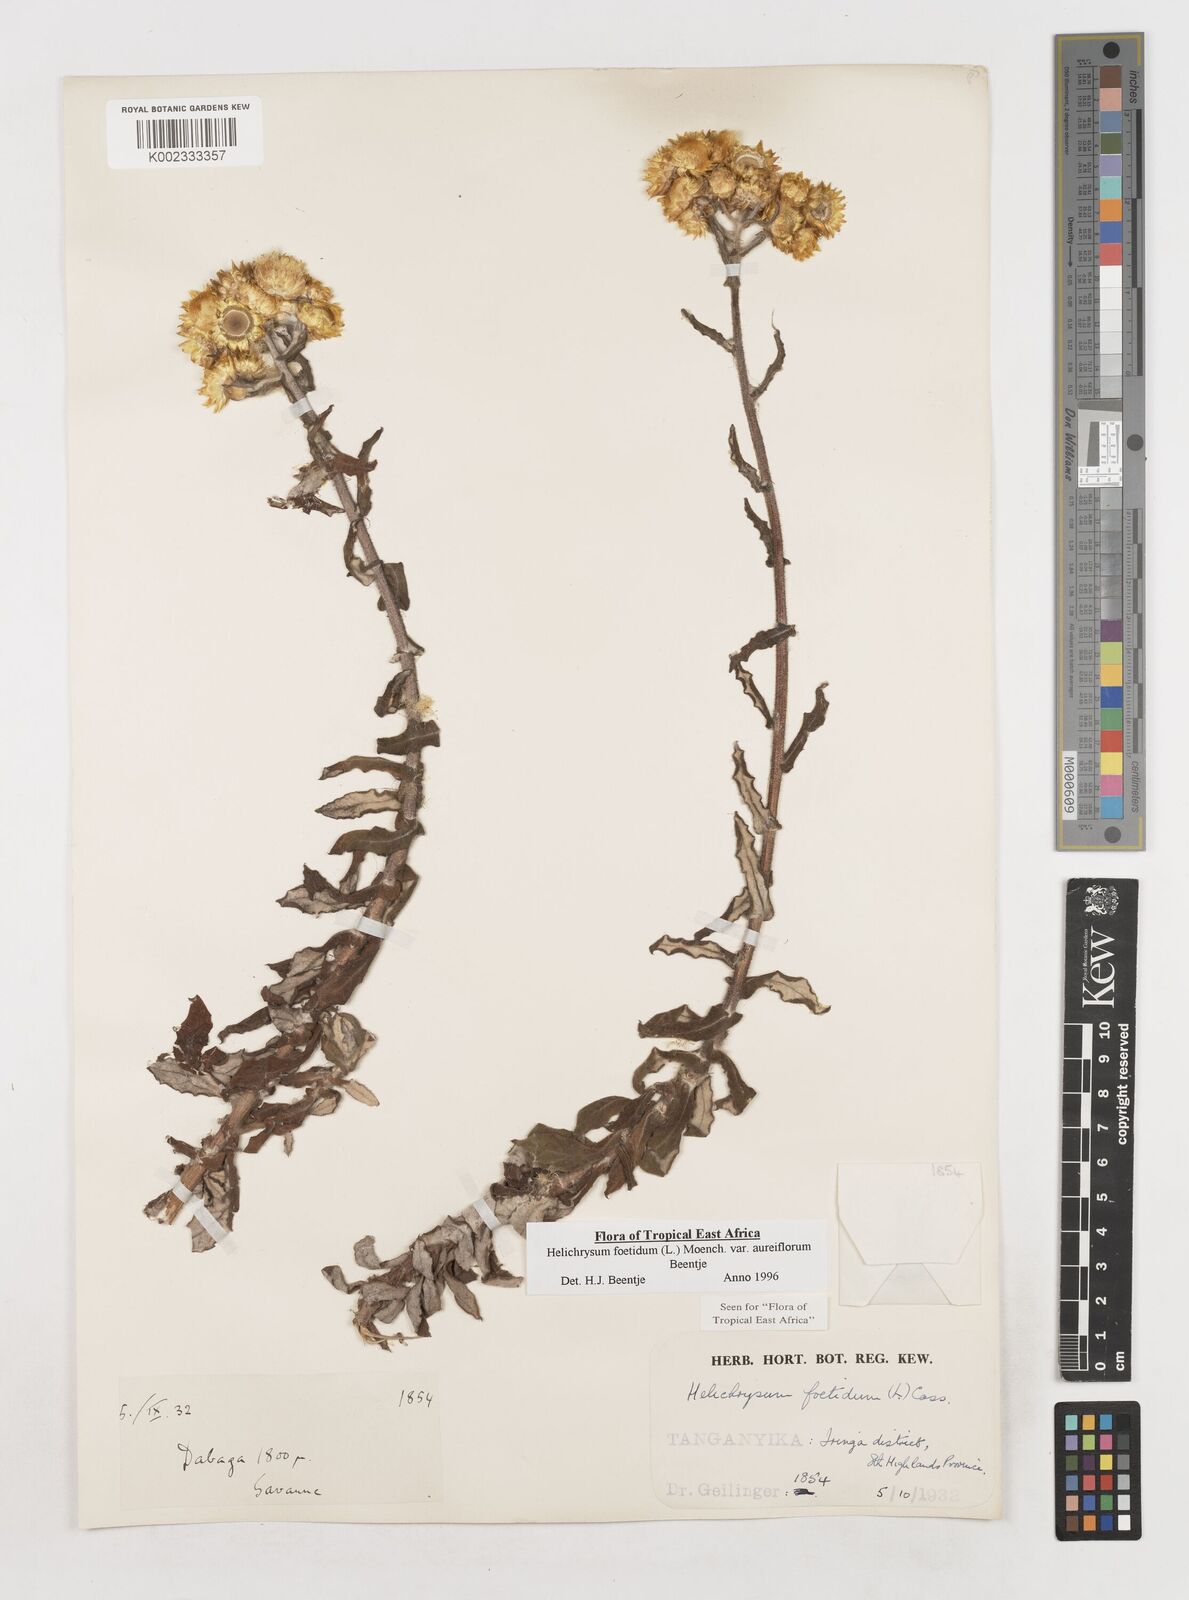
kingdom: Plantae
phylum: Tracheophyta
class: Magnoliopsida
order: Asterales
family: Asteraceae
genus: Helichrysum
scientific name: Helichrysum foetidum
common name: Stinking everlasting
